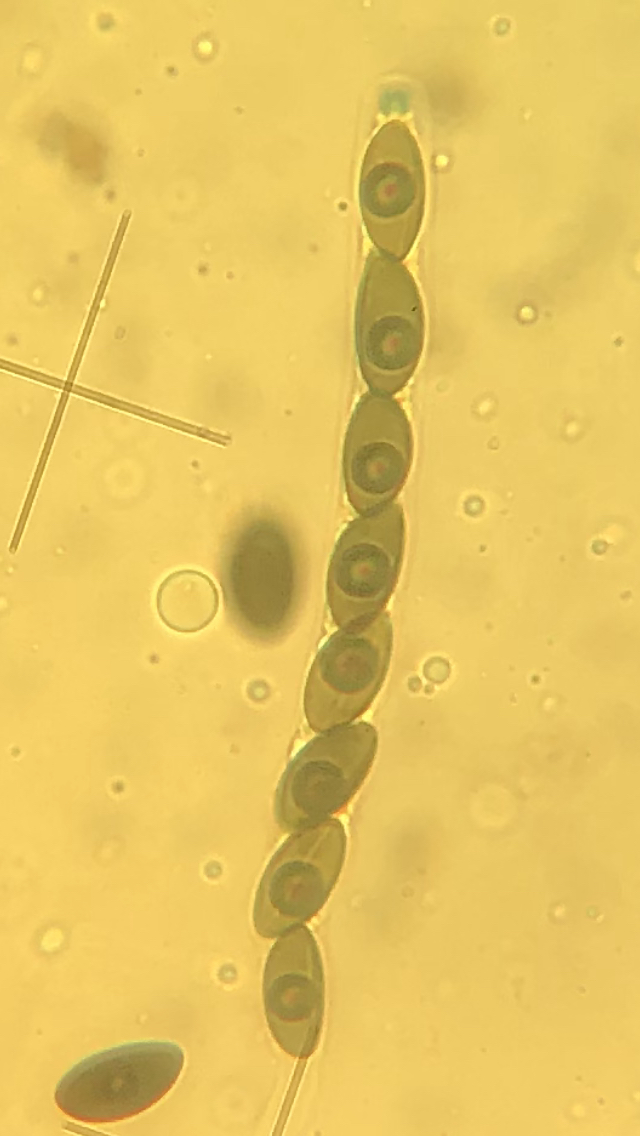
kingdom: Fungi
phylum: Ascomycota
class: Sordariomycetes
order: Xylariales
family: Xylariaceae
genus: Nemania
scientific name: Nemania confluens
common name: indsænket kuldyne
